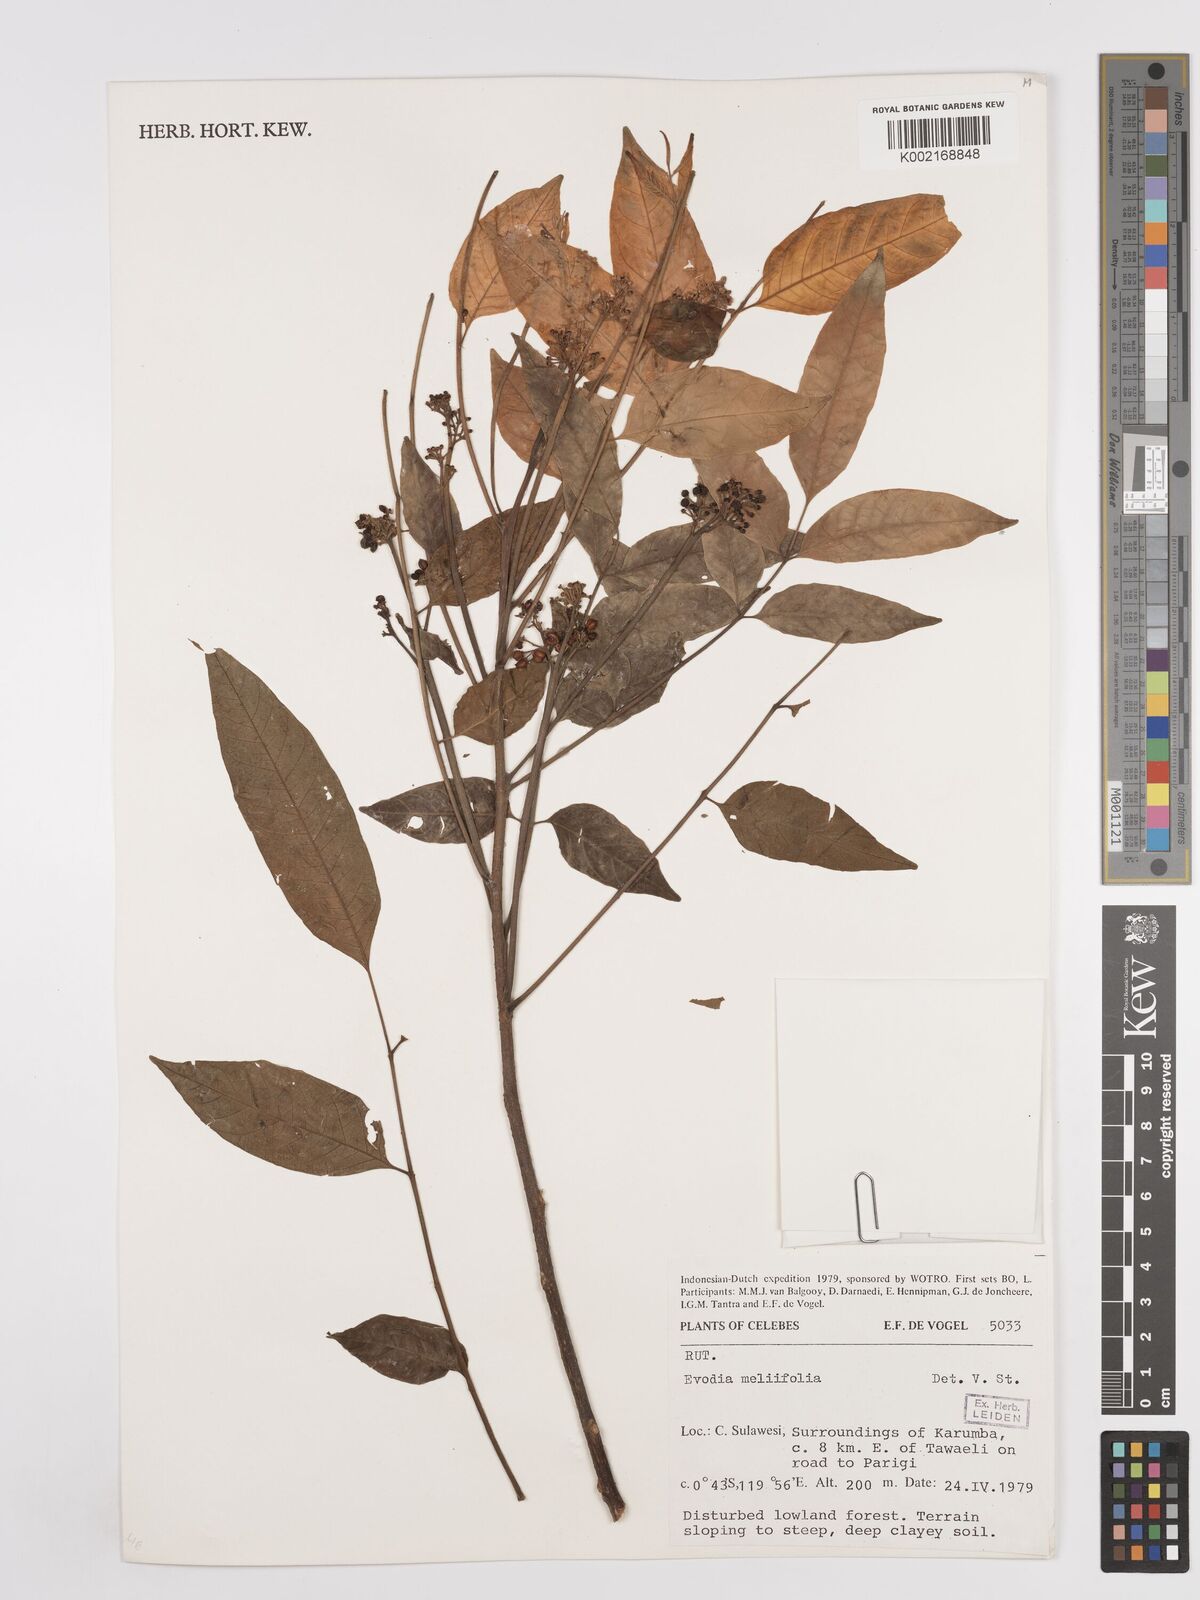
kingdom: Plantae
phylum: Tracheophyta
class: Magnoliopsida
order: Sapindales
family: Rutaceae
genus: Tetradium
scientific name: Tetradium glabrifolium
